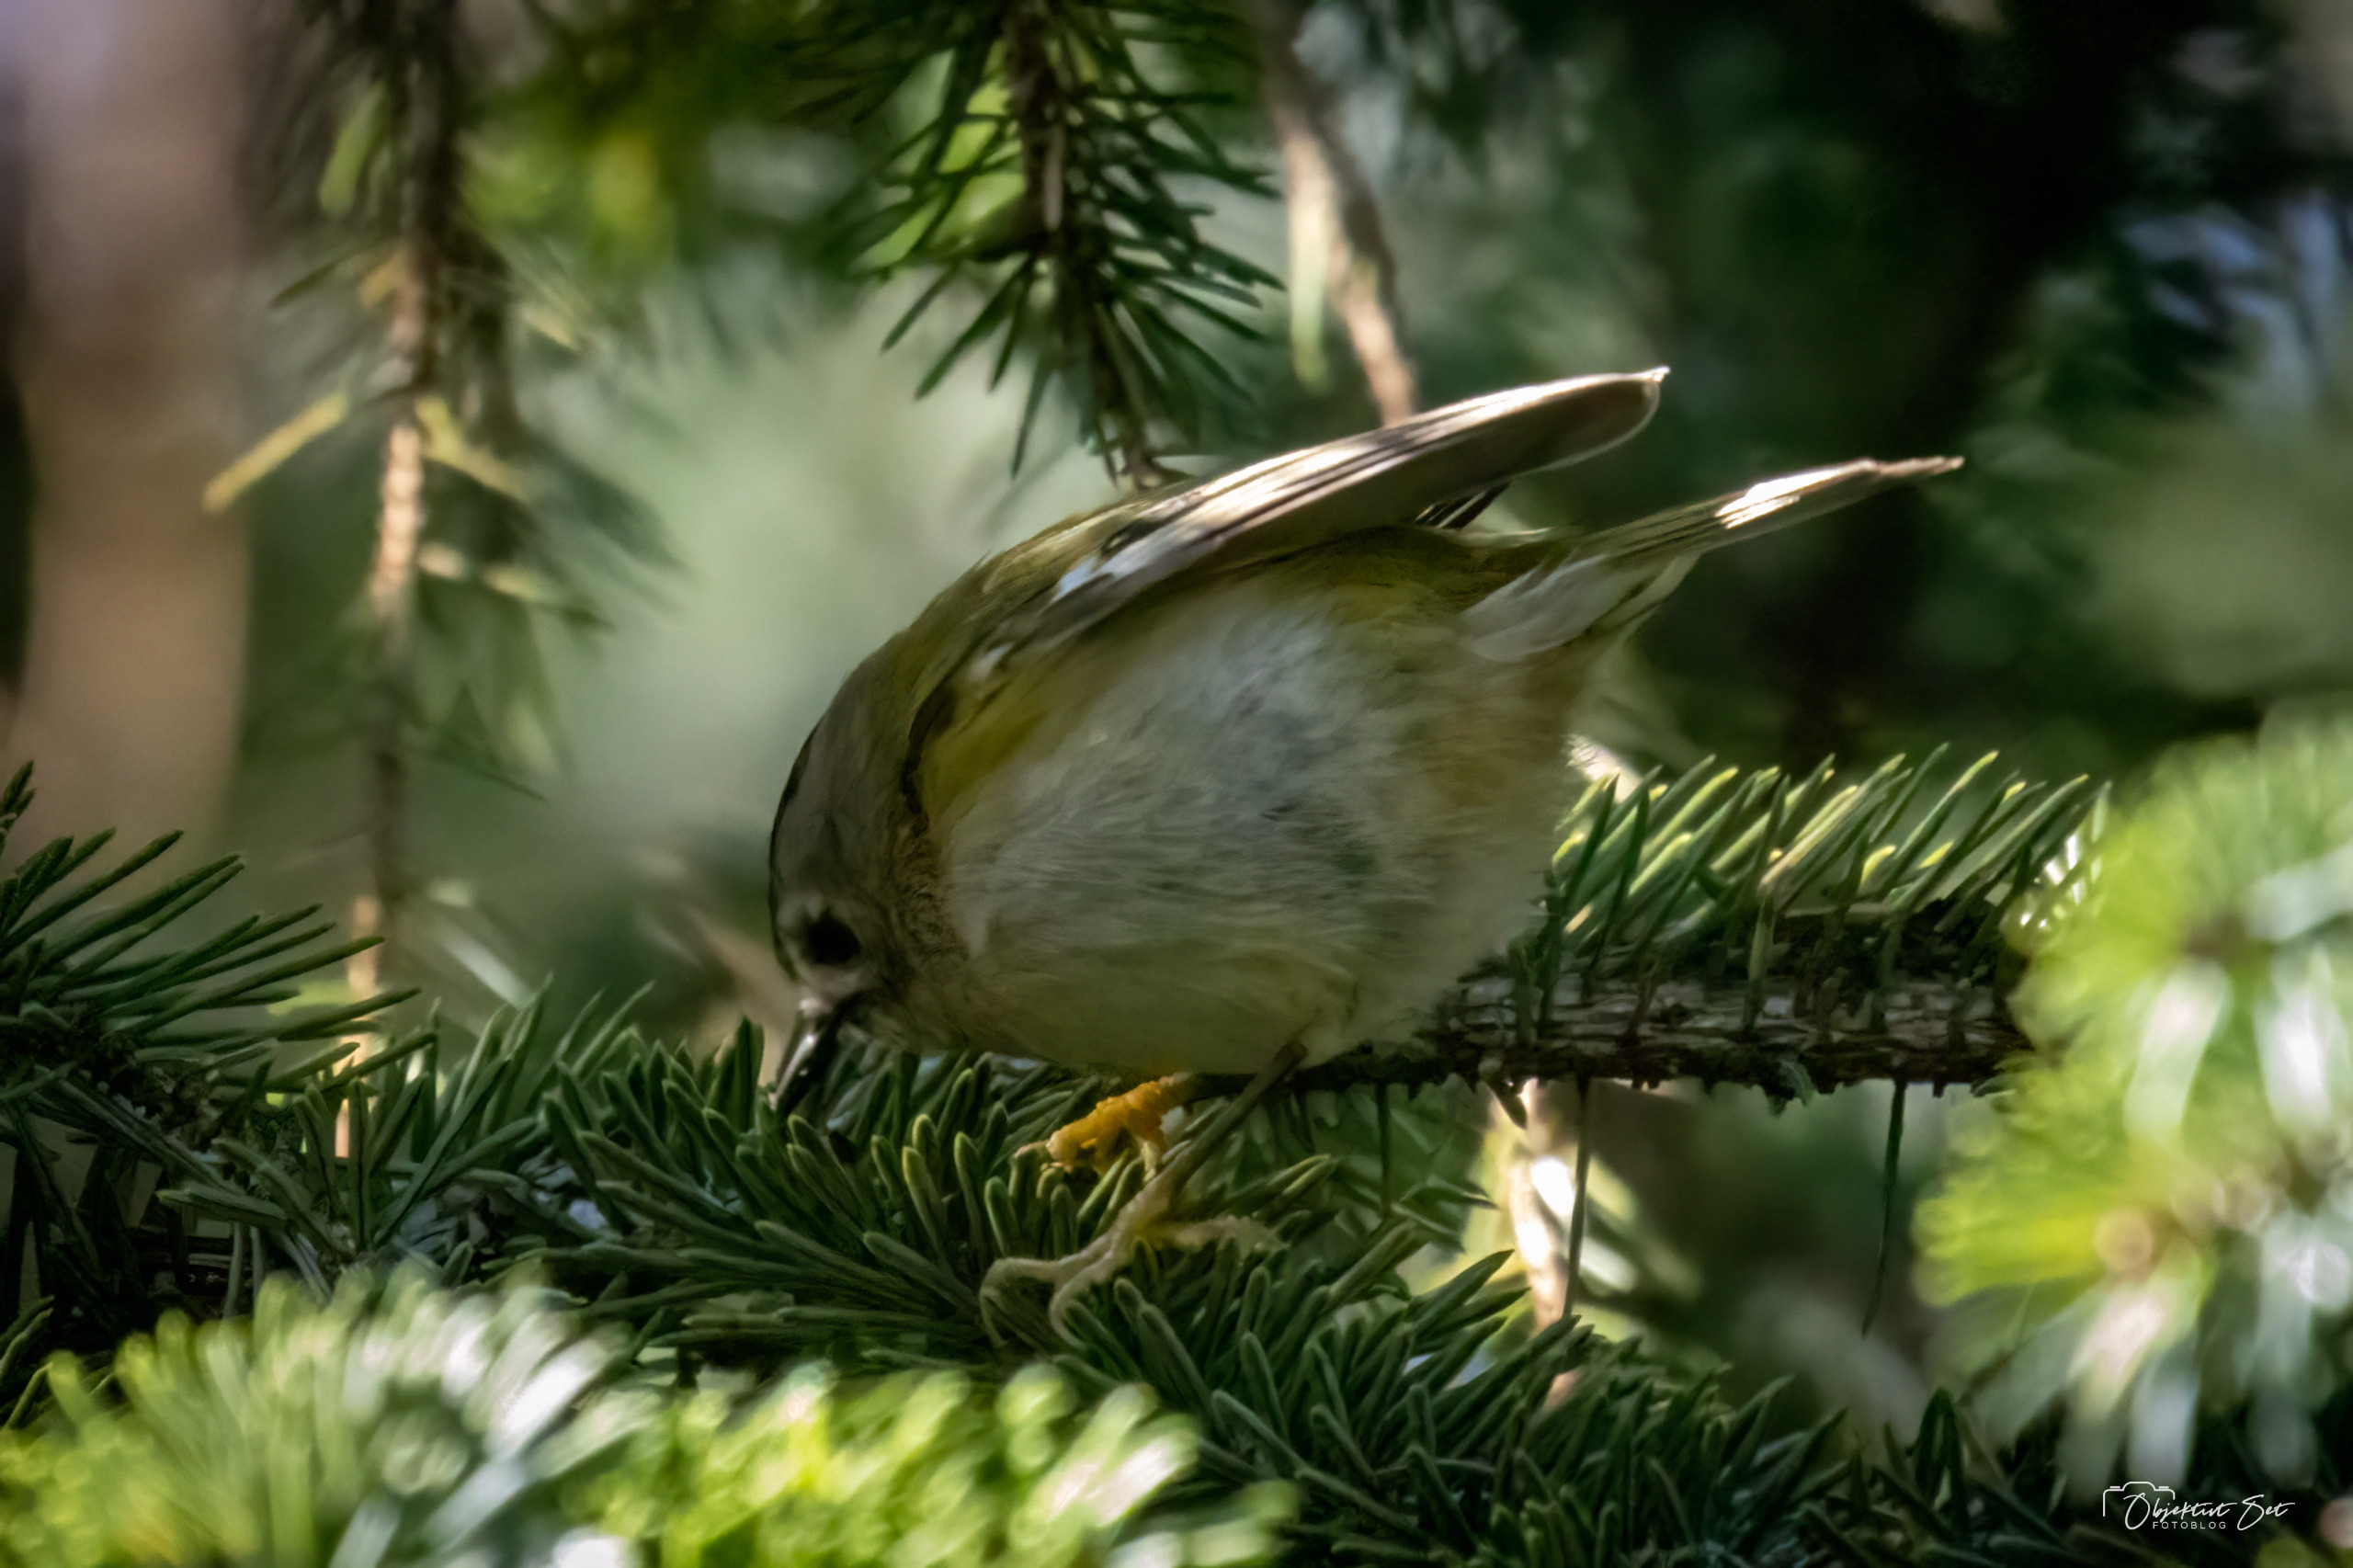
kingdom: Animalia
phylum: Chordata
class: Aves
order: Passeriformes
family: Regulidae
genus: Regulus
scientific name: Regulus regulus
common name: Fuglekonge
